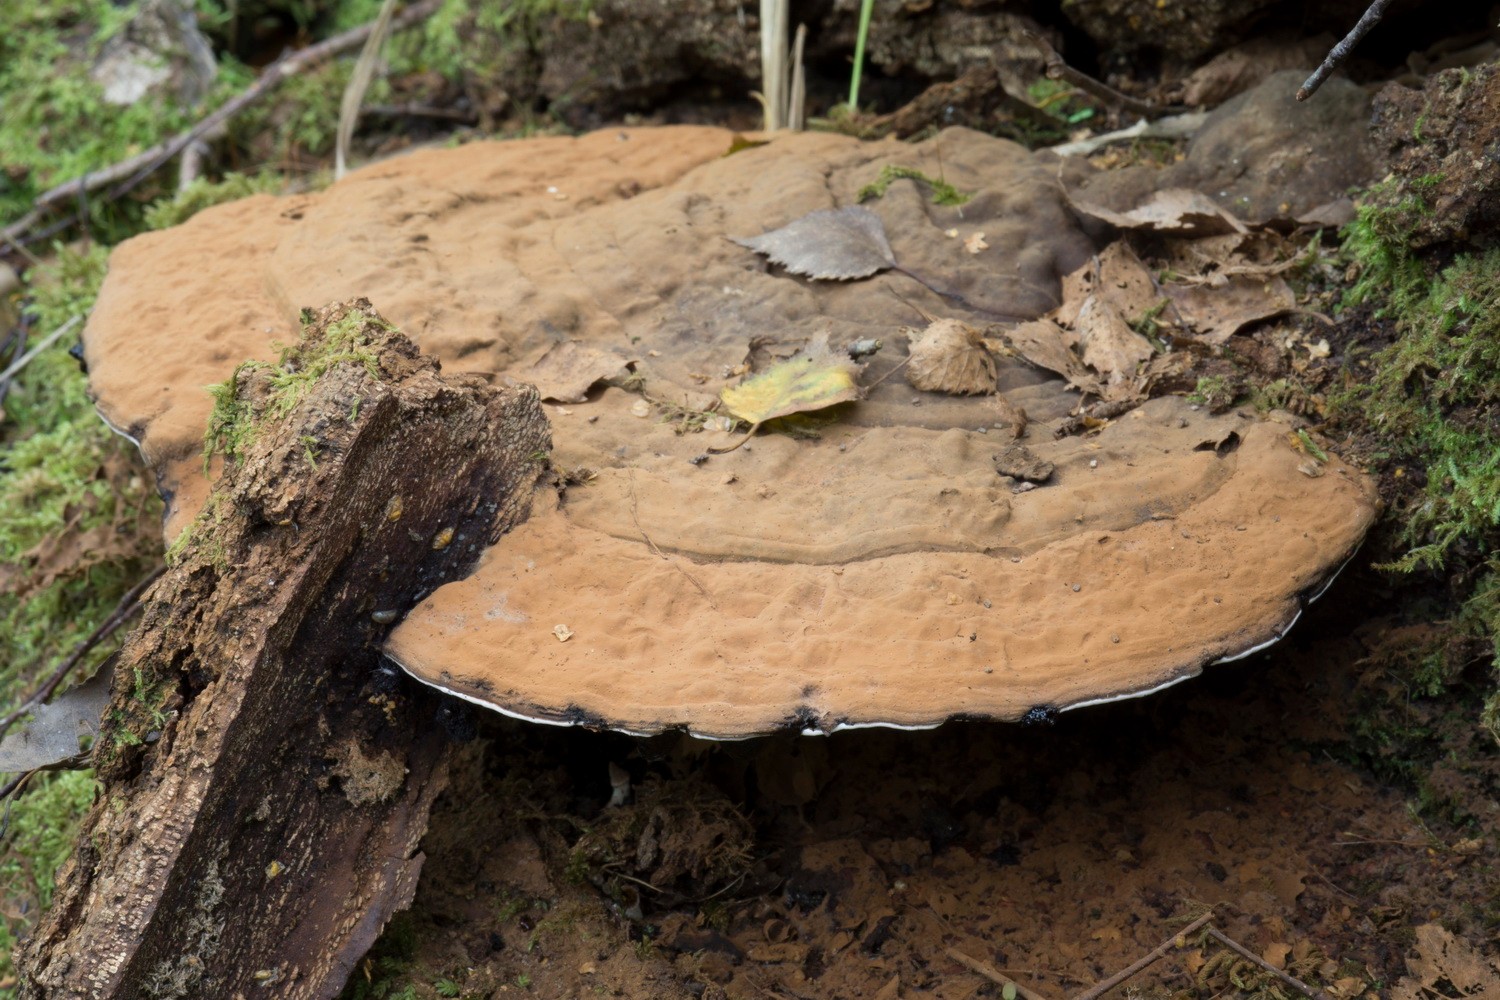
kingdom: Fungi
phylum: Basidiomycota
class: Agaricomycetes
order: Polyporales
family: Polyporaceae
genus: Ganoderma
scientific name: Ganoderma applanatum
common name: flad lakporesvamp
